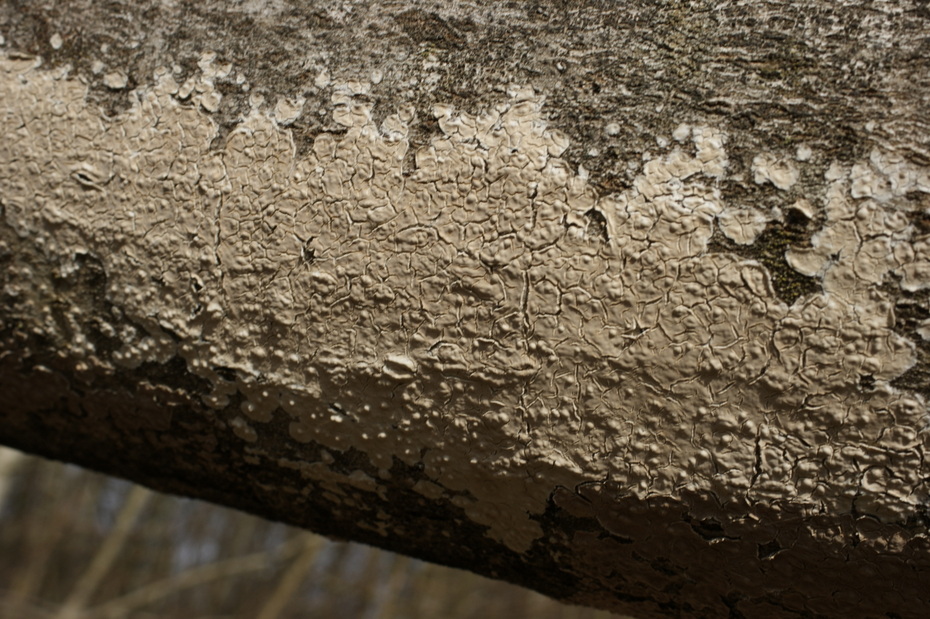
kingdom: Fungi
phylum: Basidiomycota
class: Agaricomycetes
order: Agaricales
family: Physalacriaceae
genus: Cylindrobasidium
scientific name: Cylindrobasidium evolvens
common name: sprækkehinde
